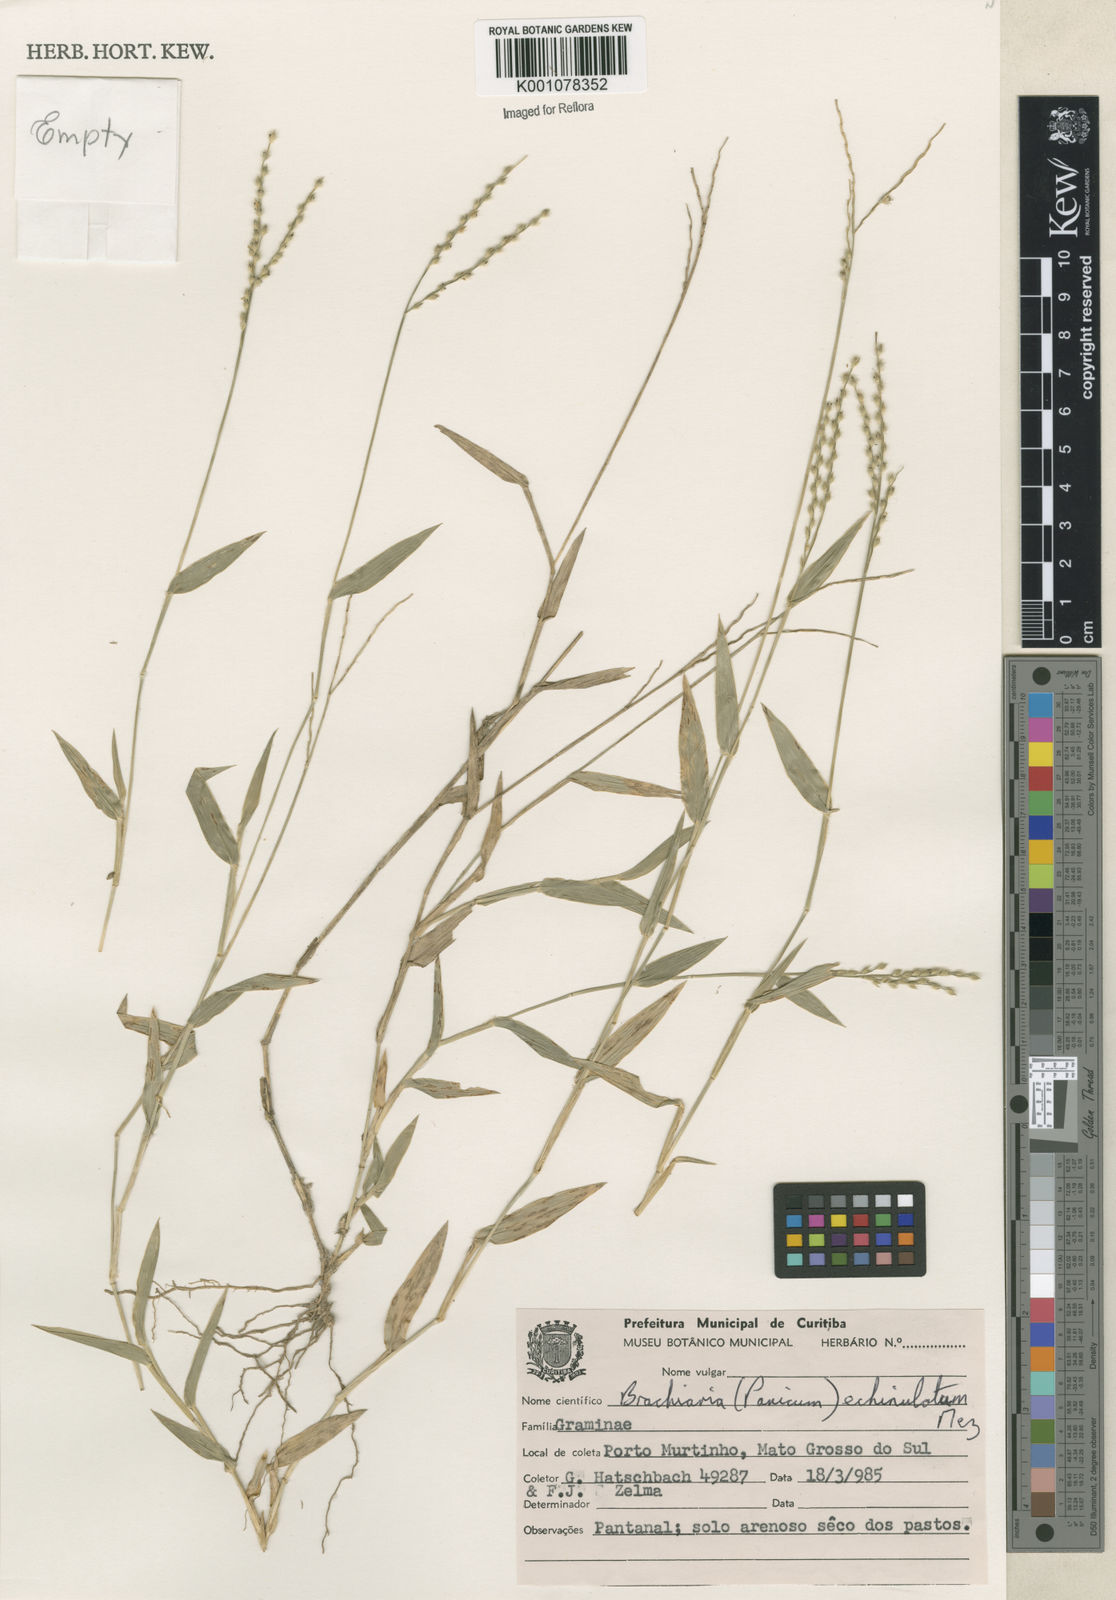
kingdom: Plantae
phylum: Tracheophyta
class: Liliopsida
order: Poales
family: Poaceae
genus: Urochloa
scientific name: Urochloa adspersa
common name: Dominican signal grass
